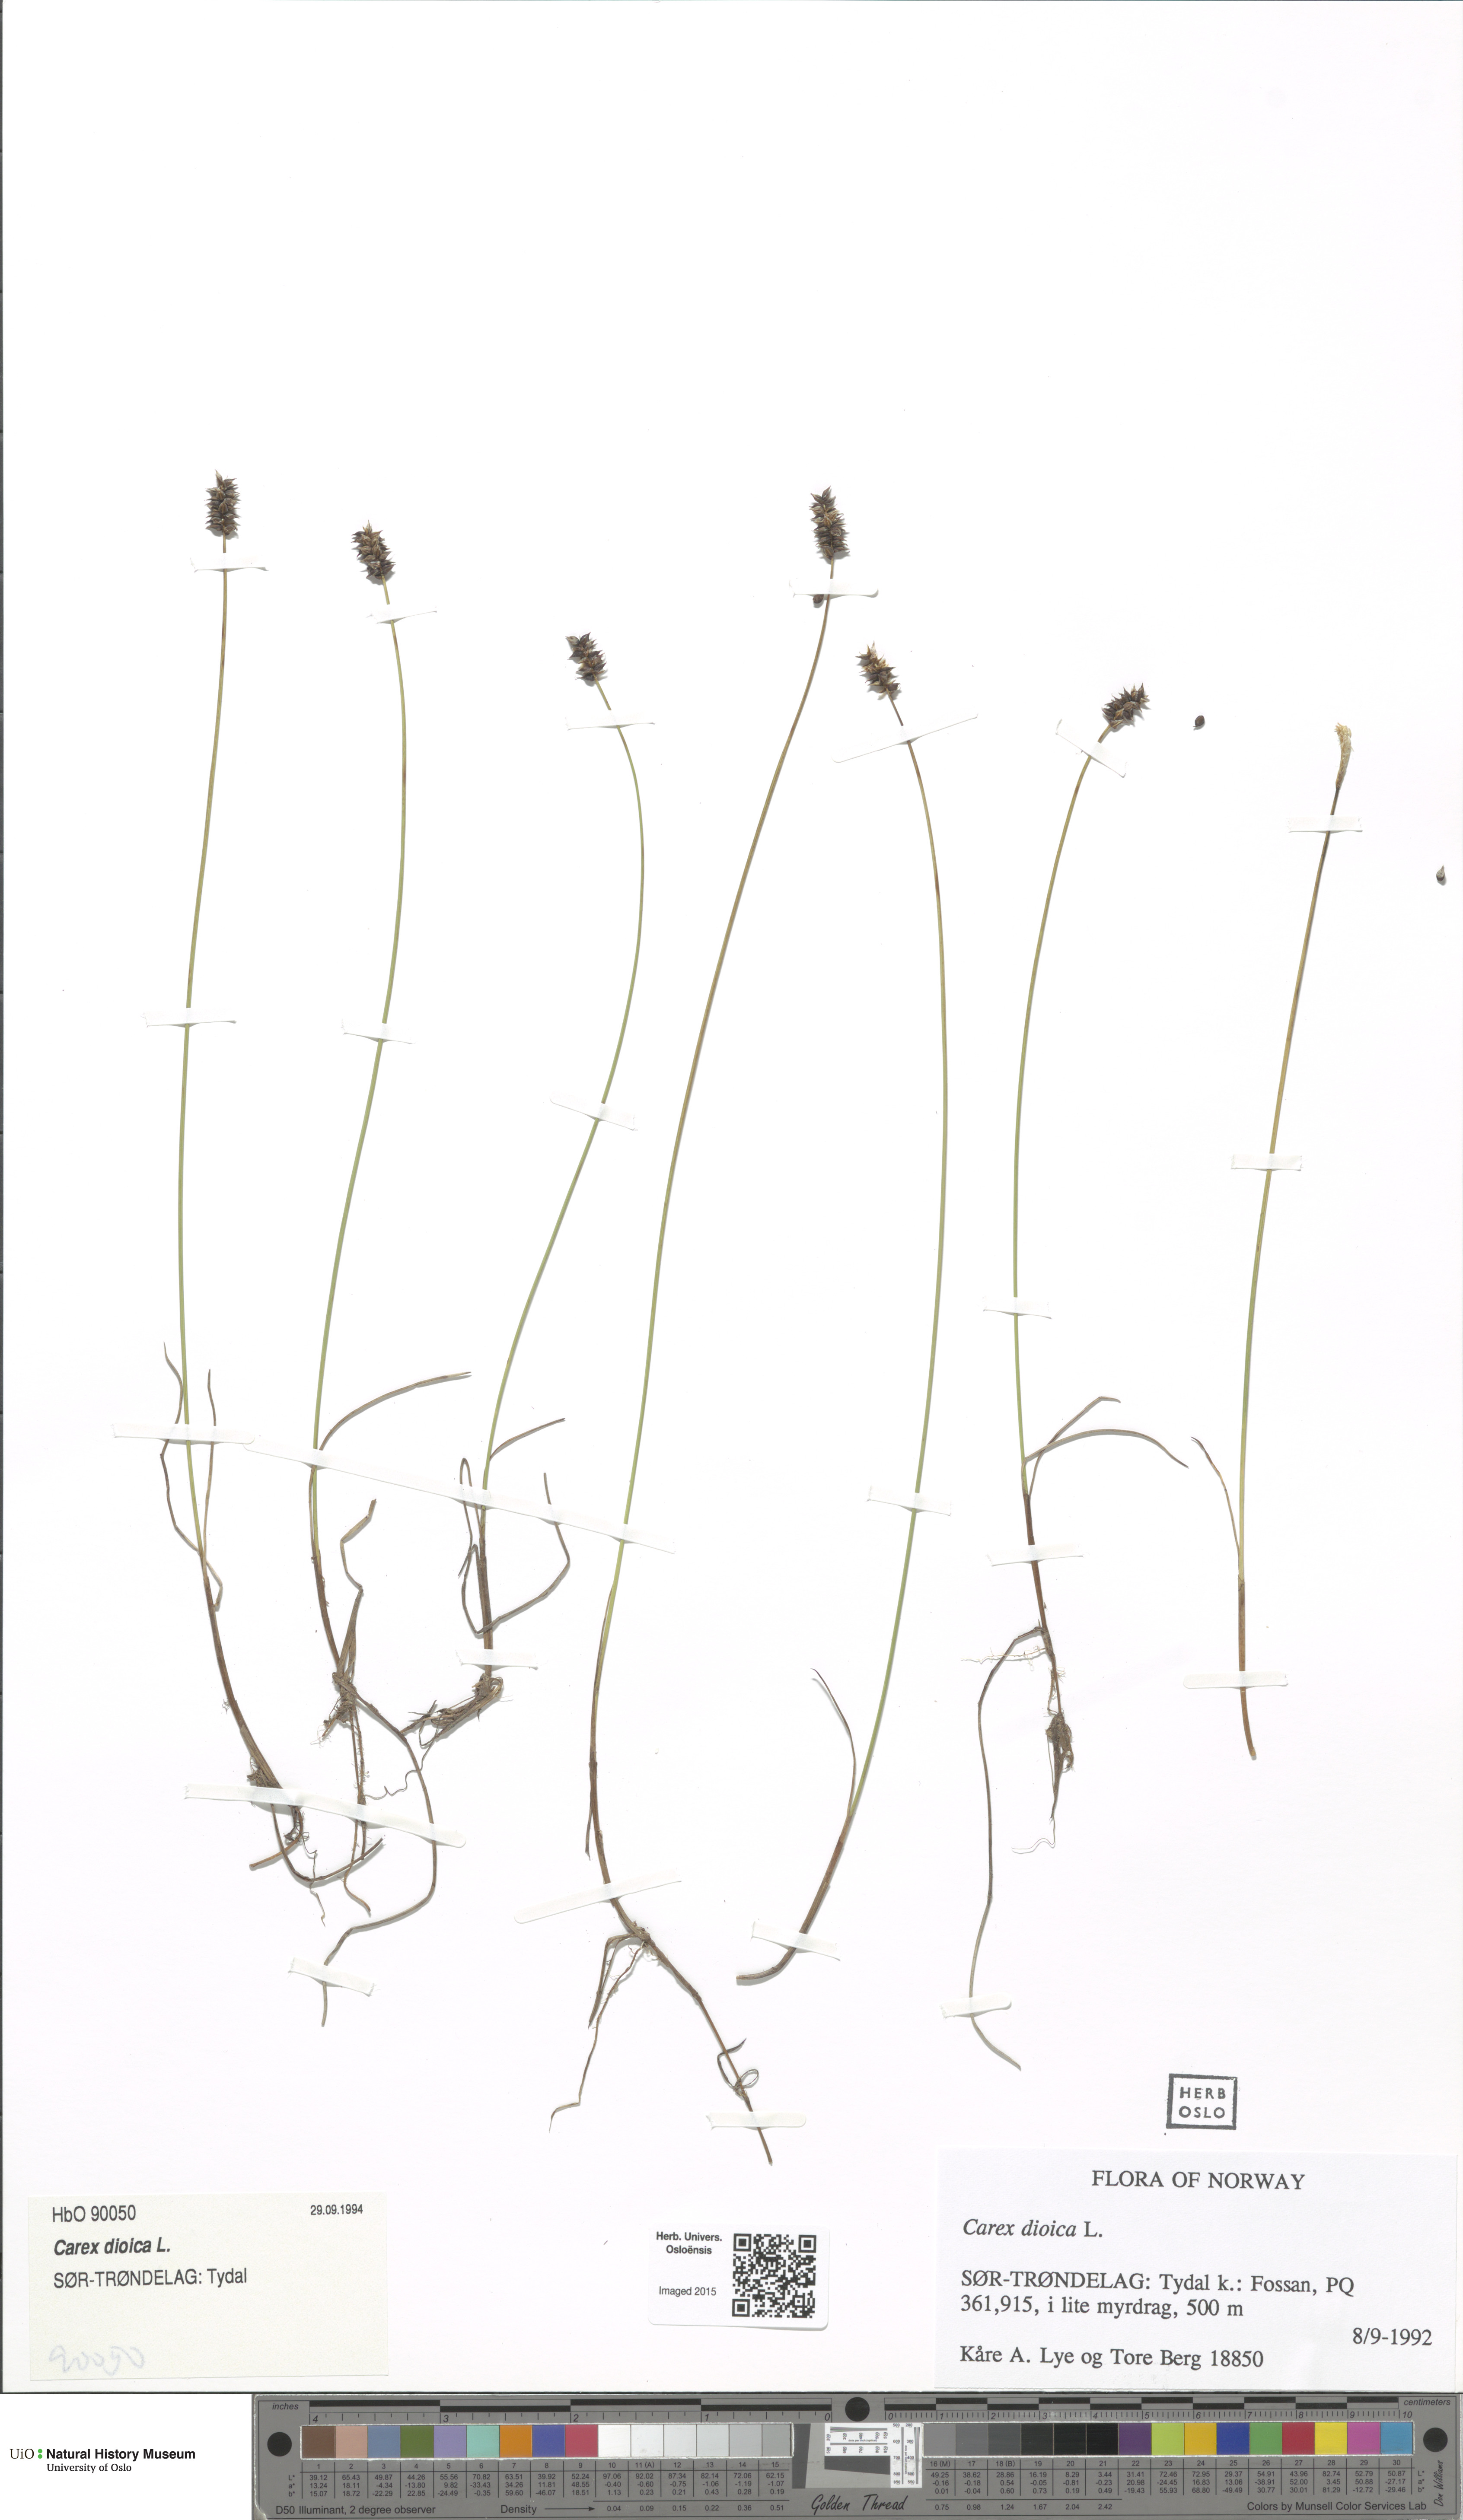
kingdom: Plantae
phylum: Tracheophyta
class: Liliopsida
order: Poales
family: Cyperaceae
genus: Carex
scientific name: Carex dioica
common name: Dioecious sedge
